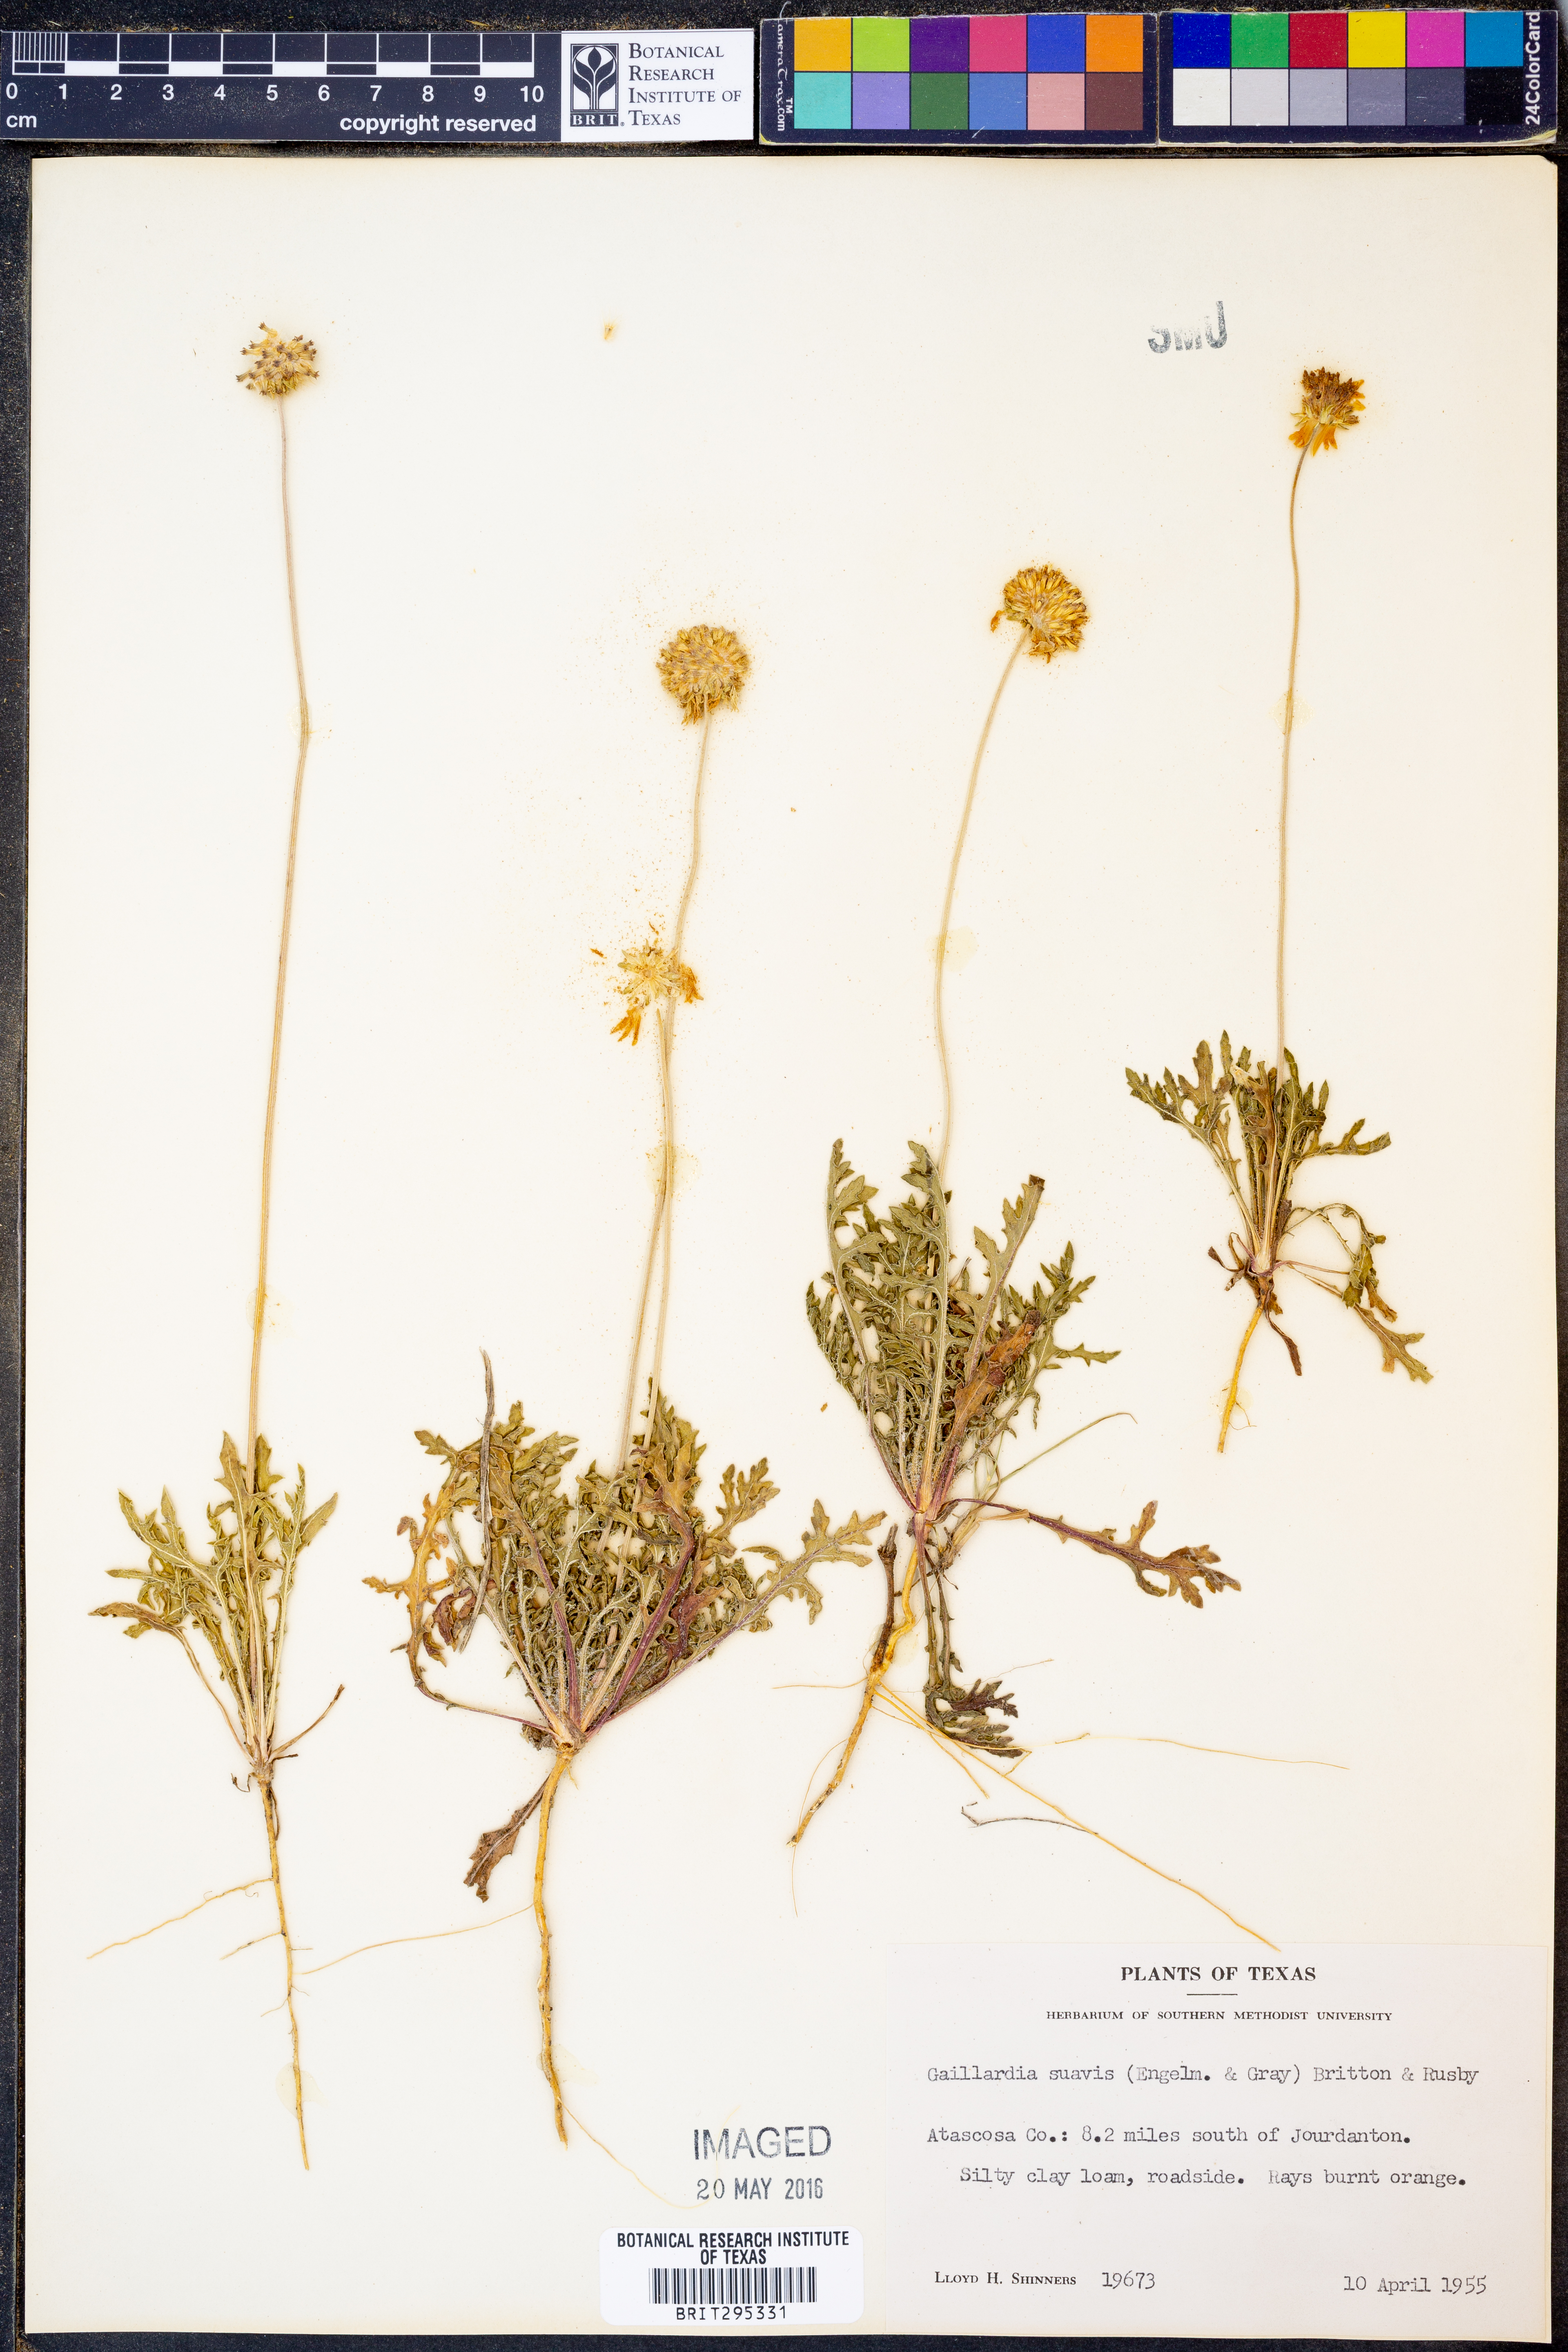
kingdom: Plantae
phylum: Tracheophyta
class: Magnoliopsida
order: Asterales
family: Asteraceae
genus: Gaillardia
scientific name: Gaillardia suavis
